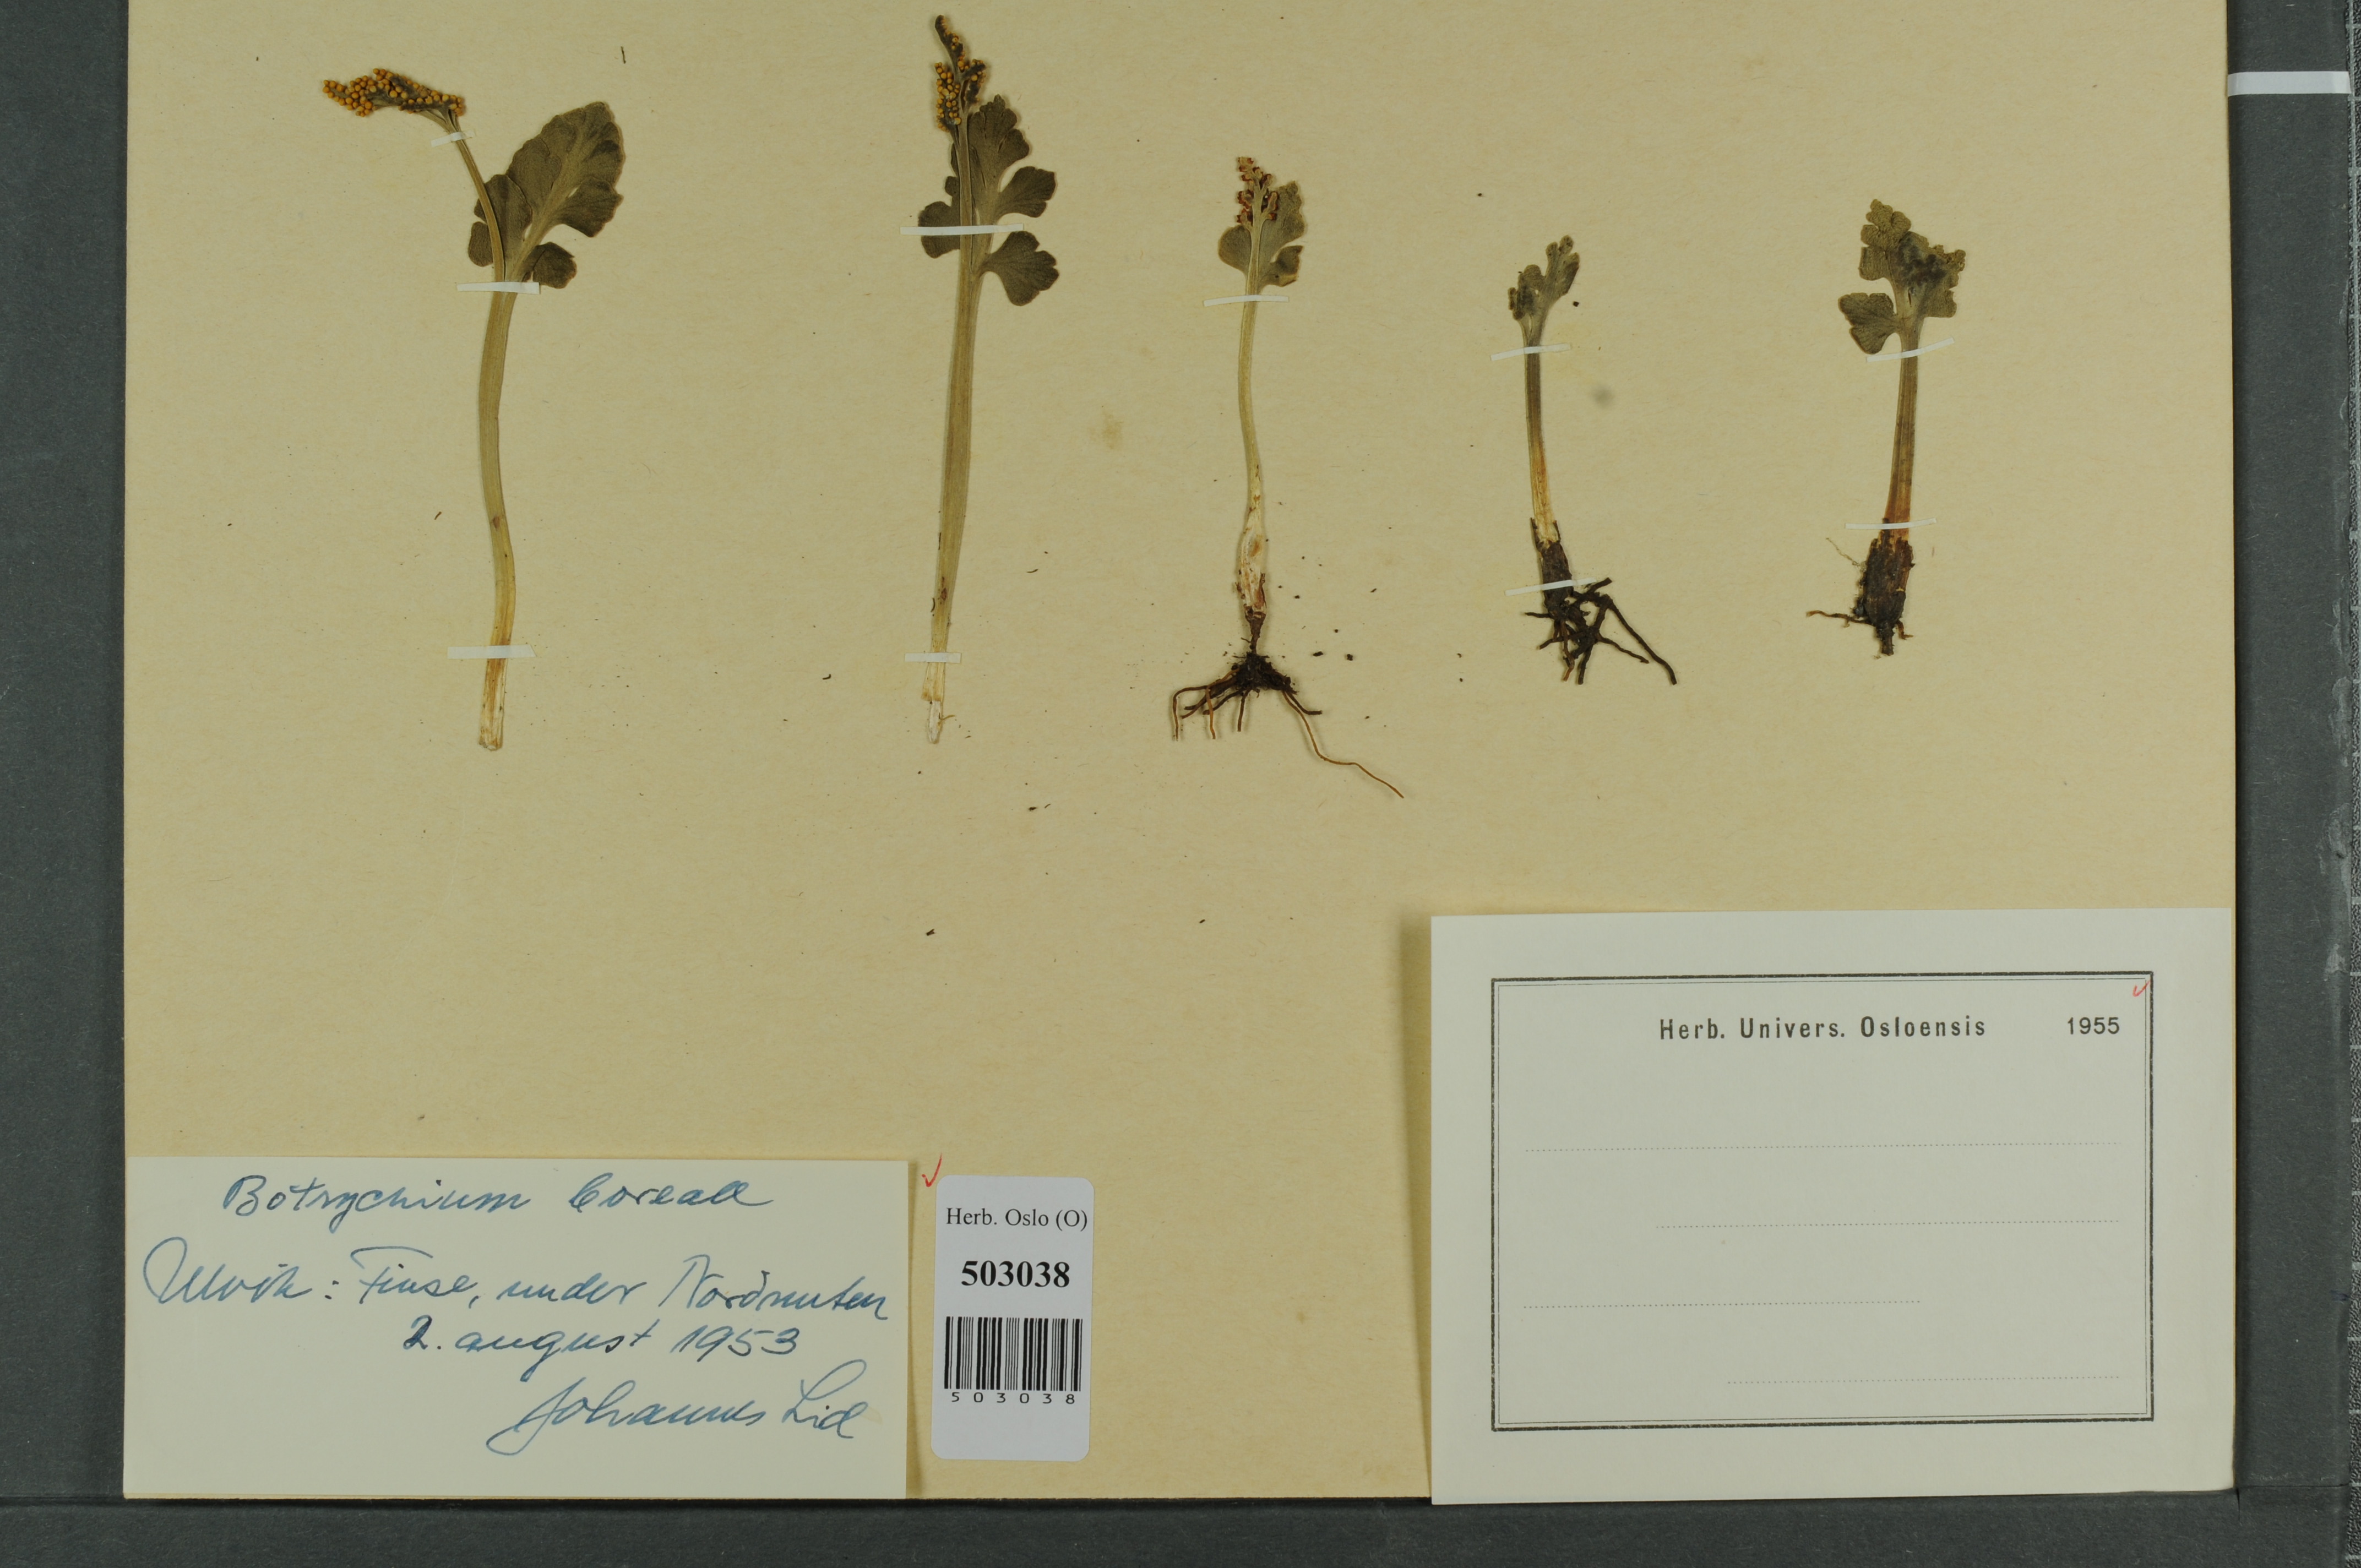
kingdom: Plantae
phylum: Tracheophyta
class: Polypodiopsida
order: Ophioglossales
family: Ophioglossaceae
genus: Botrychium
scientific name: Botrychium boreale
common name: Boreal moonwort
